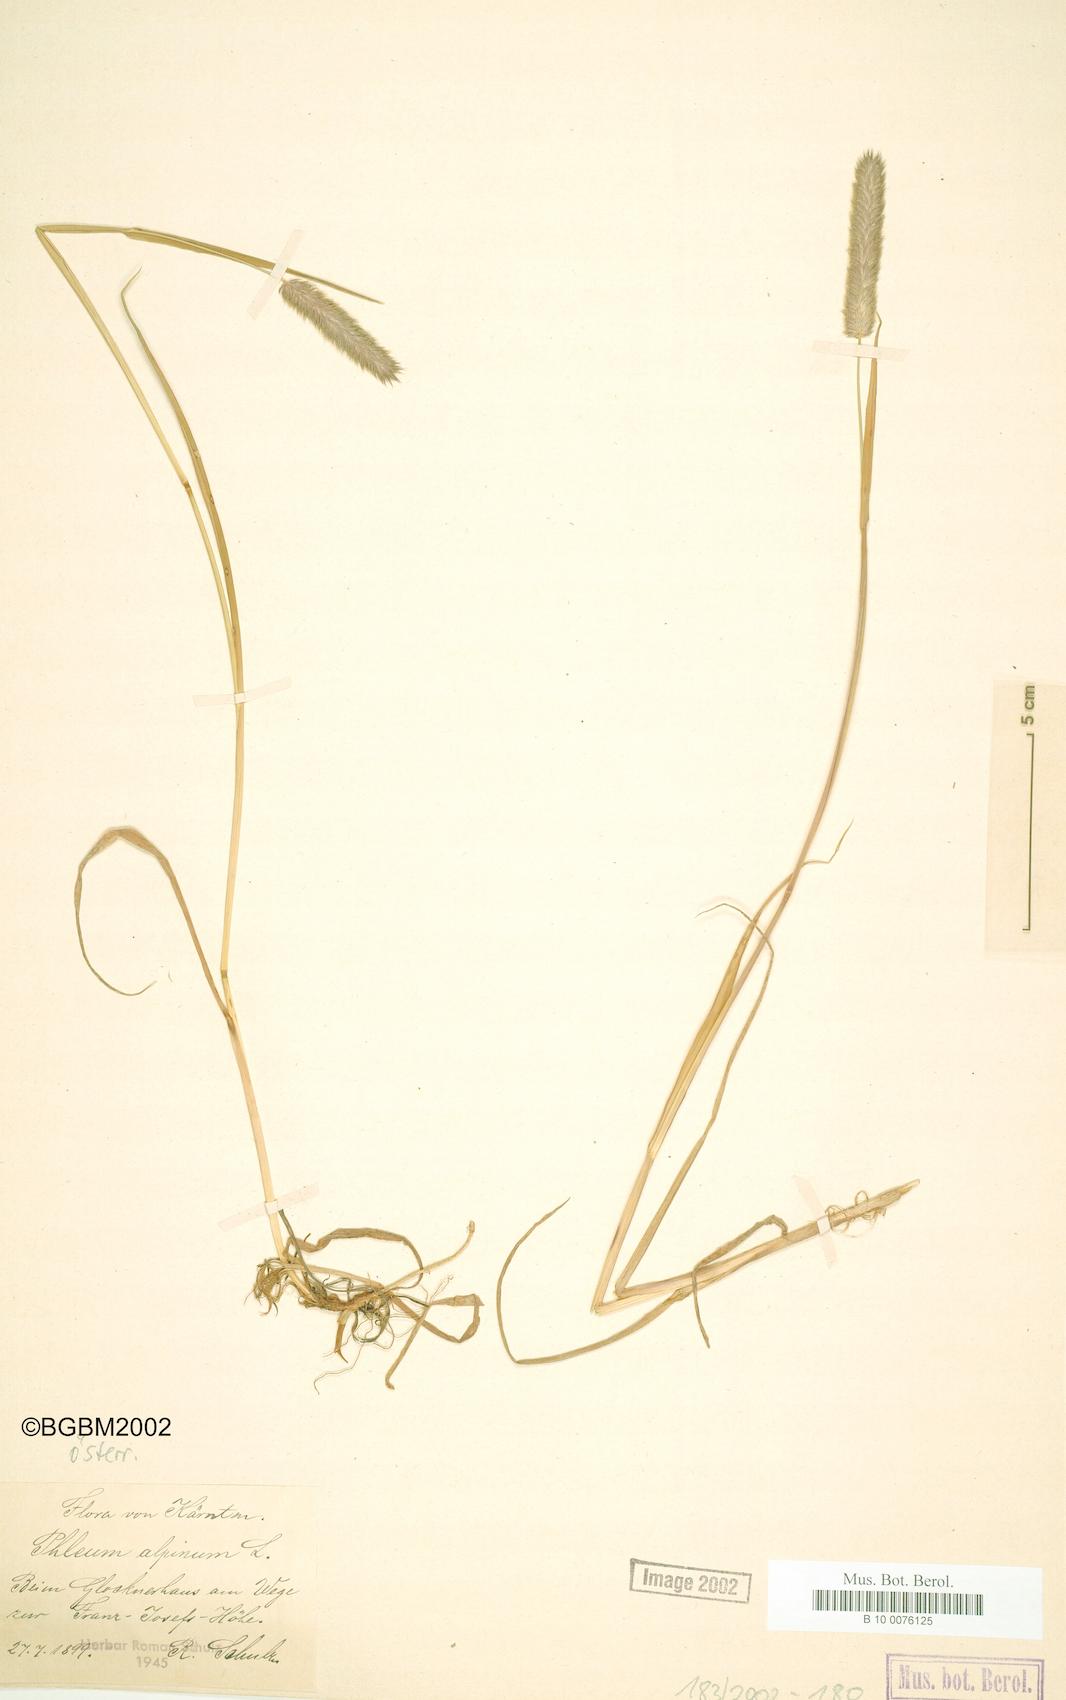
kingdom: Plantae
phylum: Tracheophyta
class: Liliopsida
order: Poales
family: Poaceae
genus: Phleum
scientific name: Phleum alpinum
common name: Alpine cat's-tail
